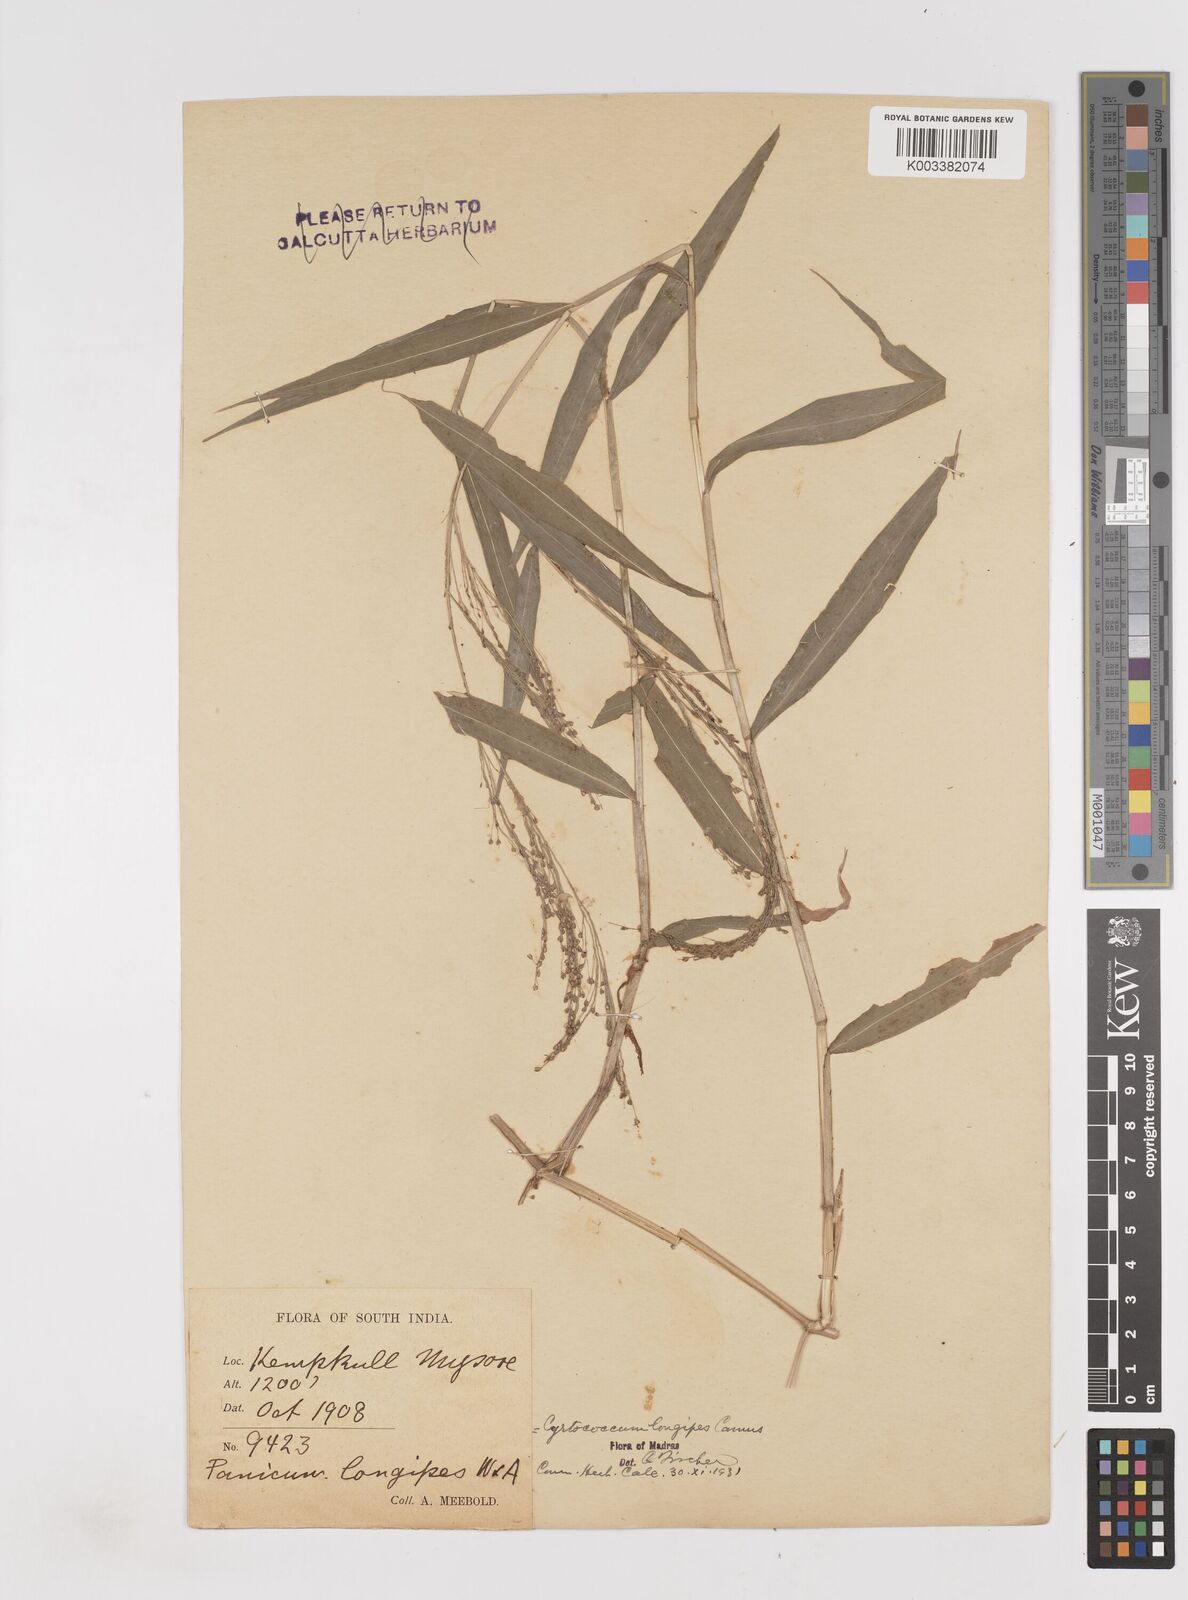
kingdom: Plantae
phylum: Tracheophyta
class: Liliopsida
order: Poales
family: Poaceae
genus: Cyrtococcum
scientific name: Cyrtococcum longipes
